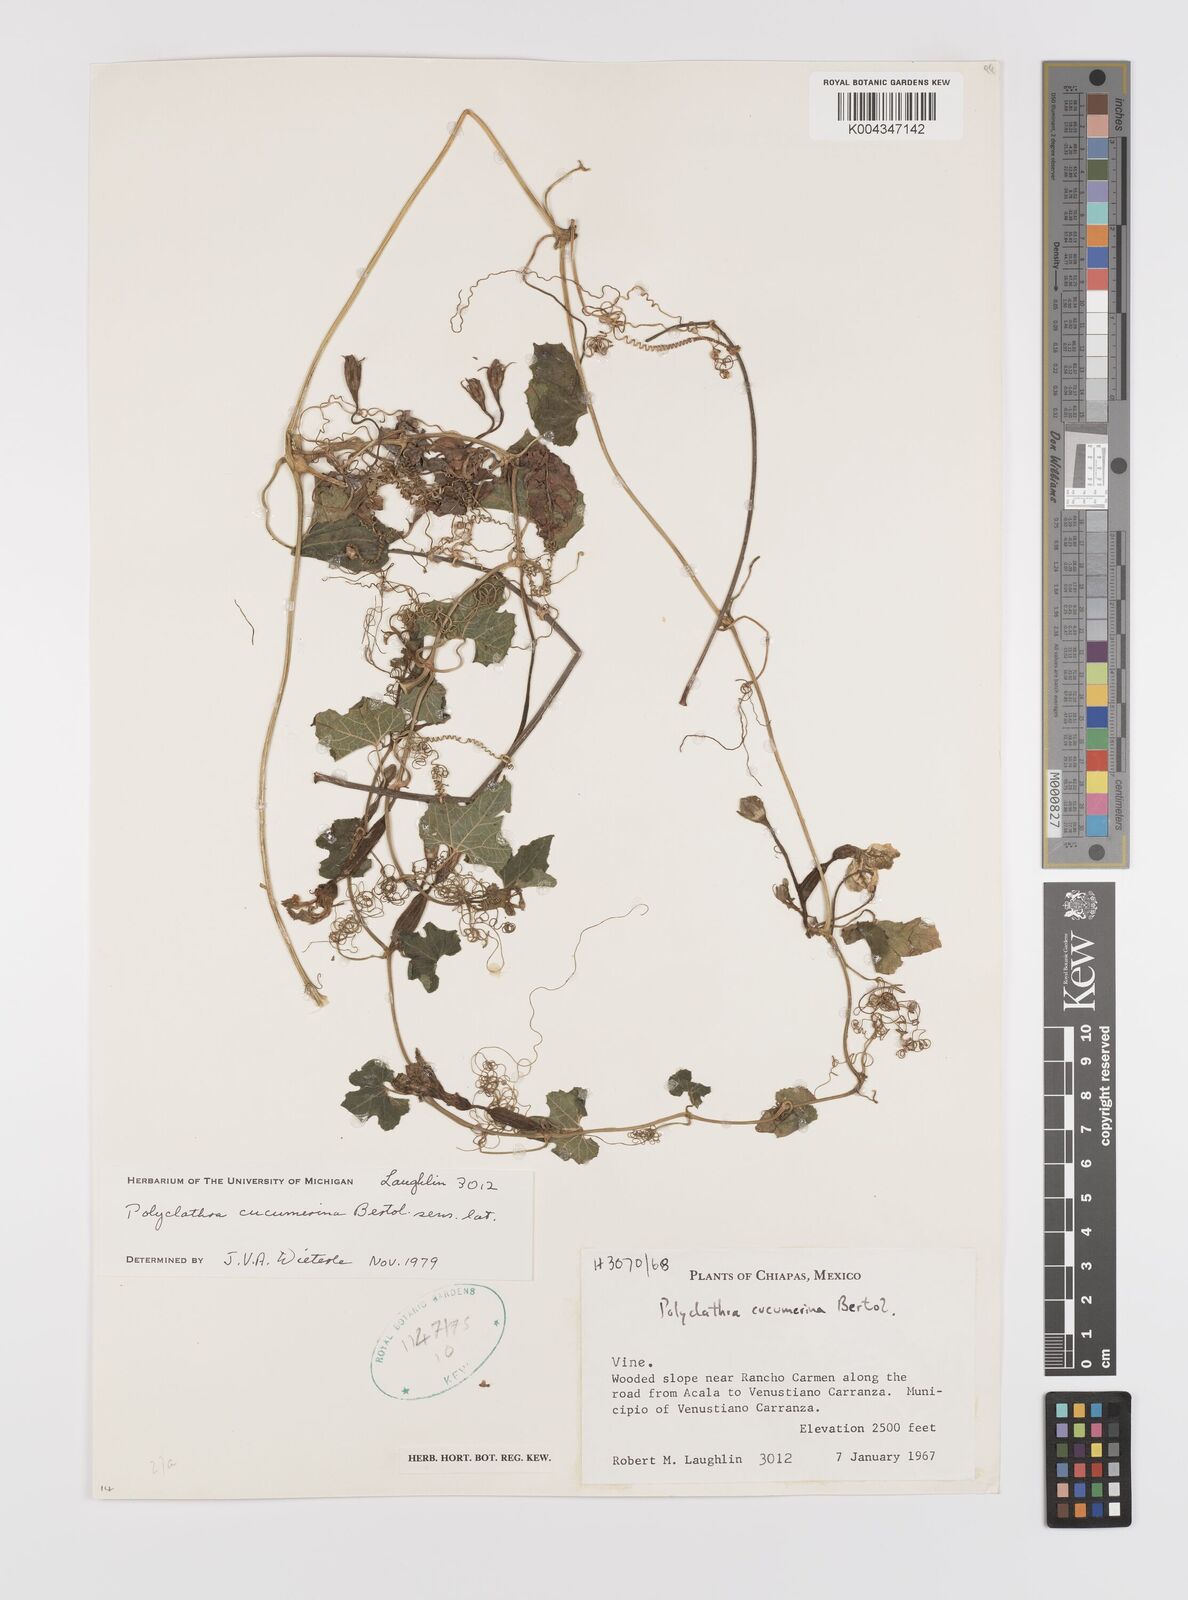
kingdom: Plantae
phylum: Tracheophyta
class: Magnoliopsida
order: Cucurbitales
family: Cucurbitaceae
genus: Polyclathra
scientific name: Polyclathra cucumerina
